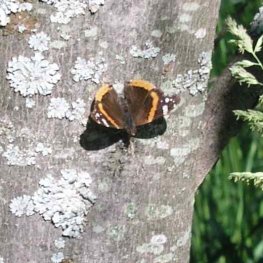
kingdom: Animalia
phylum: Arthropoda
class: Insecta
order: Lepidoptera
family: Nymphalidae
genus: Vanessa
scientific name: Vanessa atalanta
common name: Red Admiral
